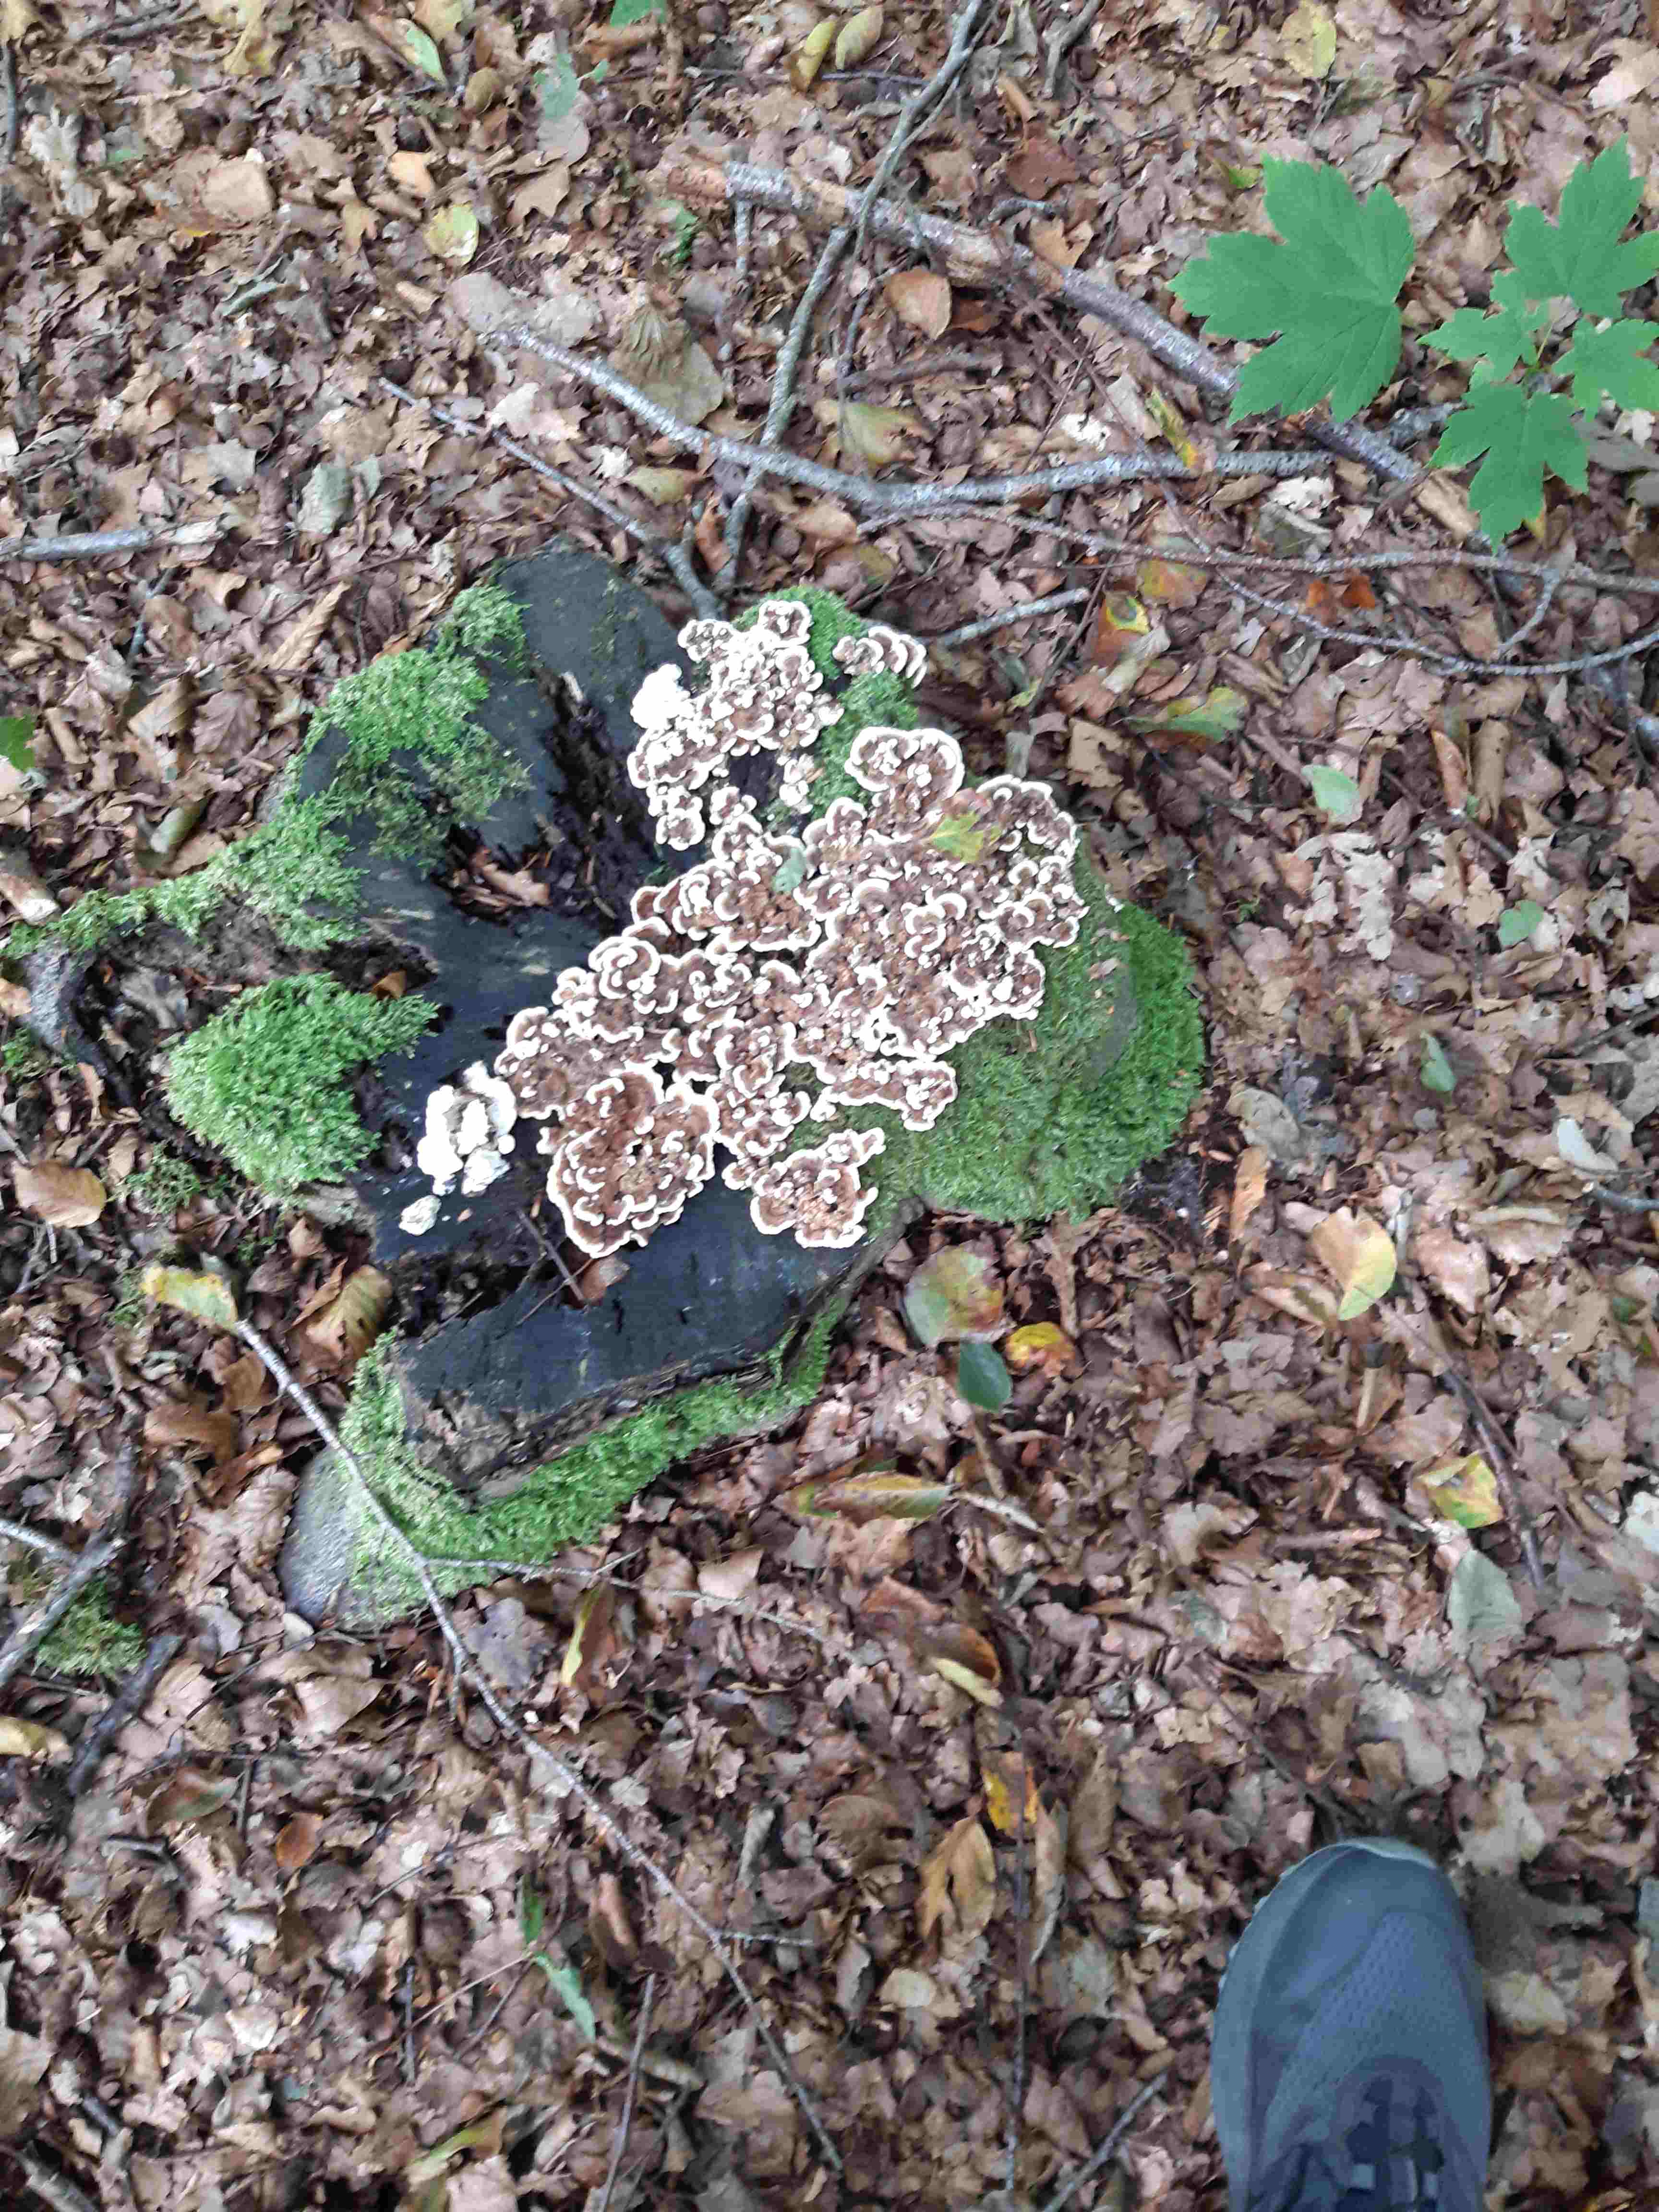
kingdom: Fungi
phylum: Basidiomycota
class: Agaricomycetes
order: Polyporales
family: Polyporaceae
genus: Trametes
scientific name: Trametes versicolor
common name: broget læderporesvamp
